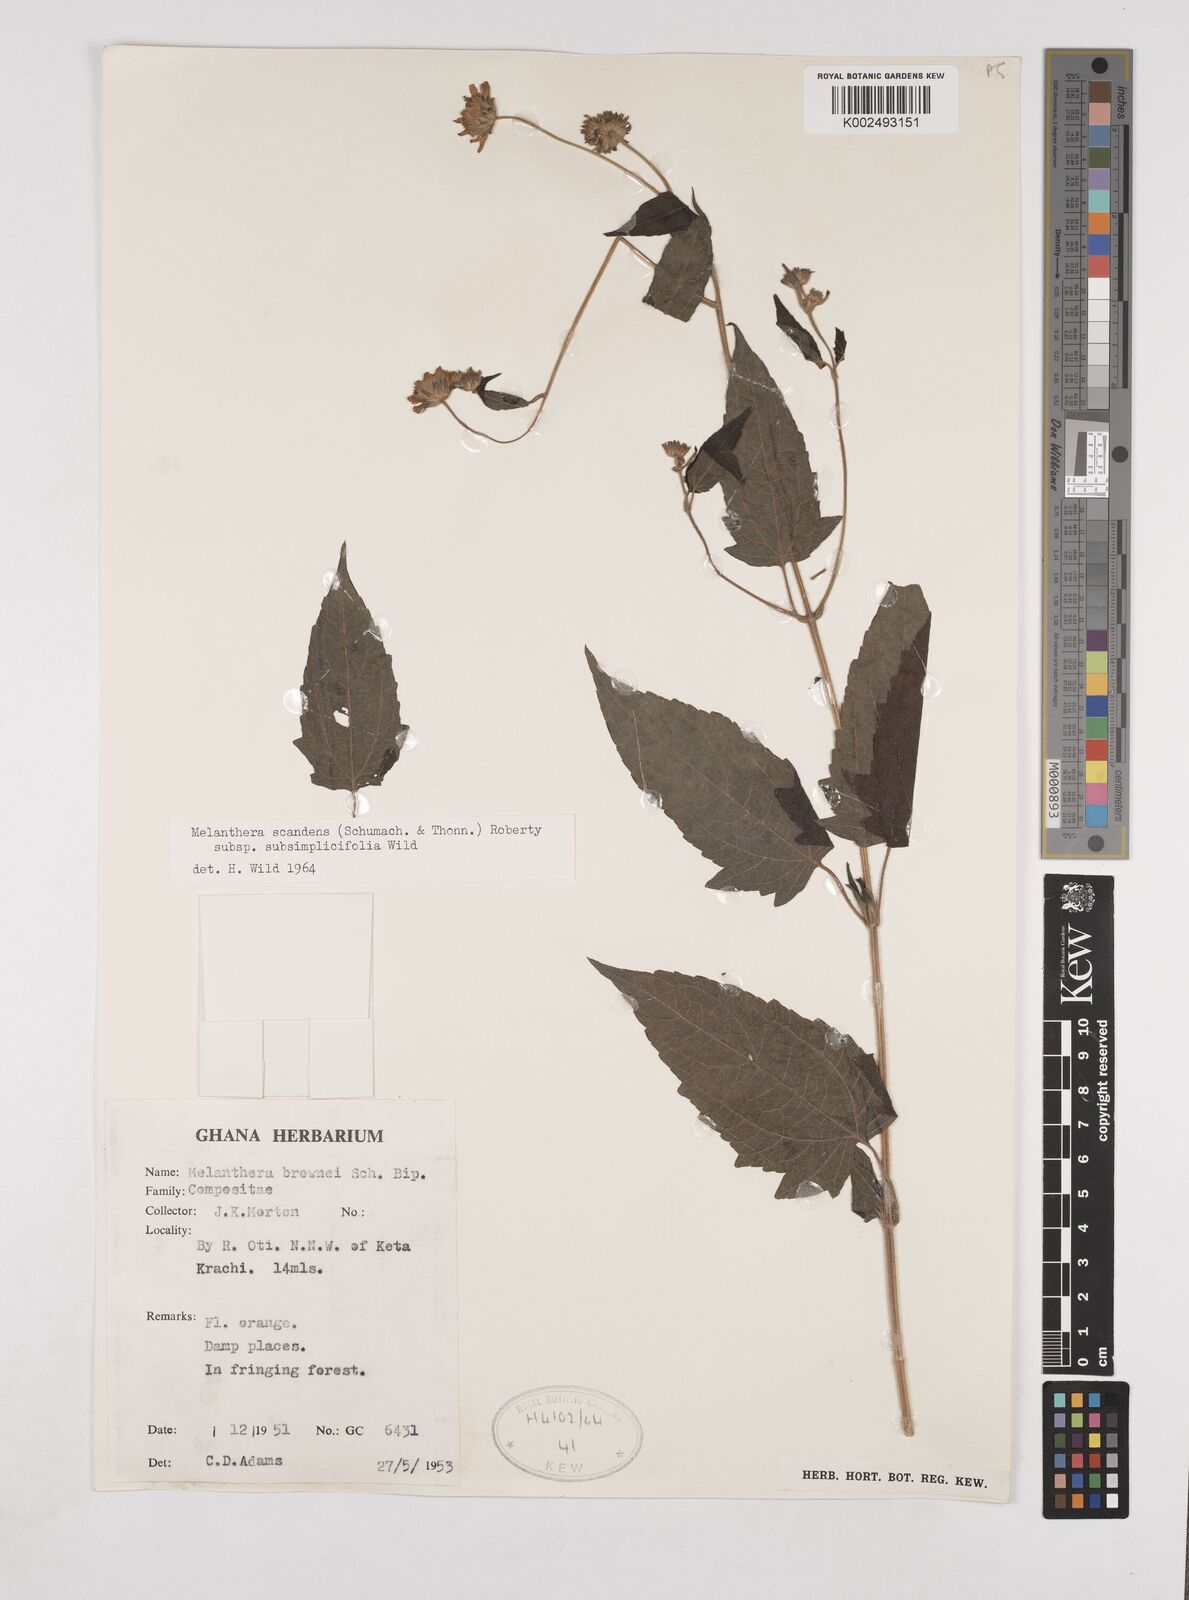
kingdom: Plantae
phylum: Tracheophyta
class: Magnoliopsida
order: Asterales
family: Asteraceae
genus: Lipotriche
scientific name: Lipotriche scandens
